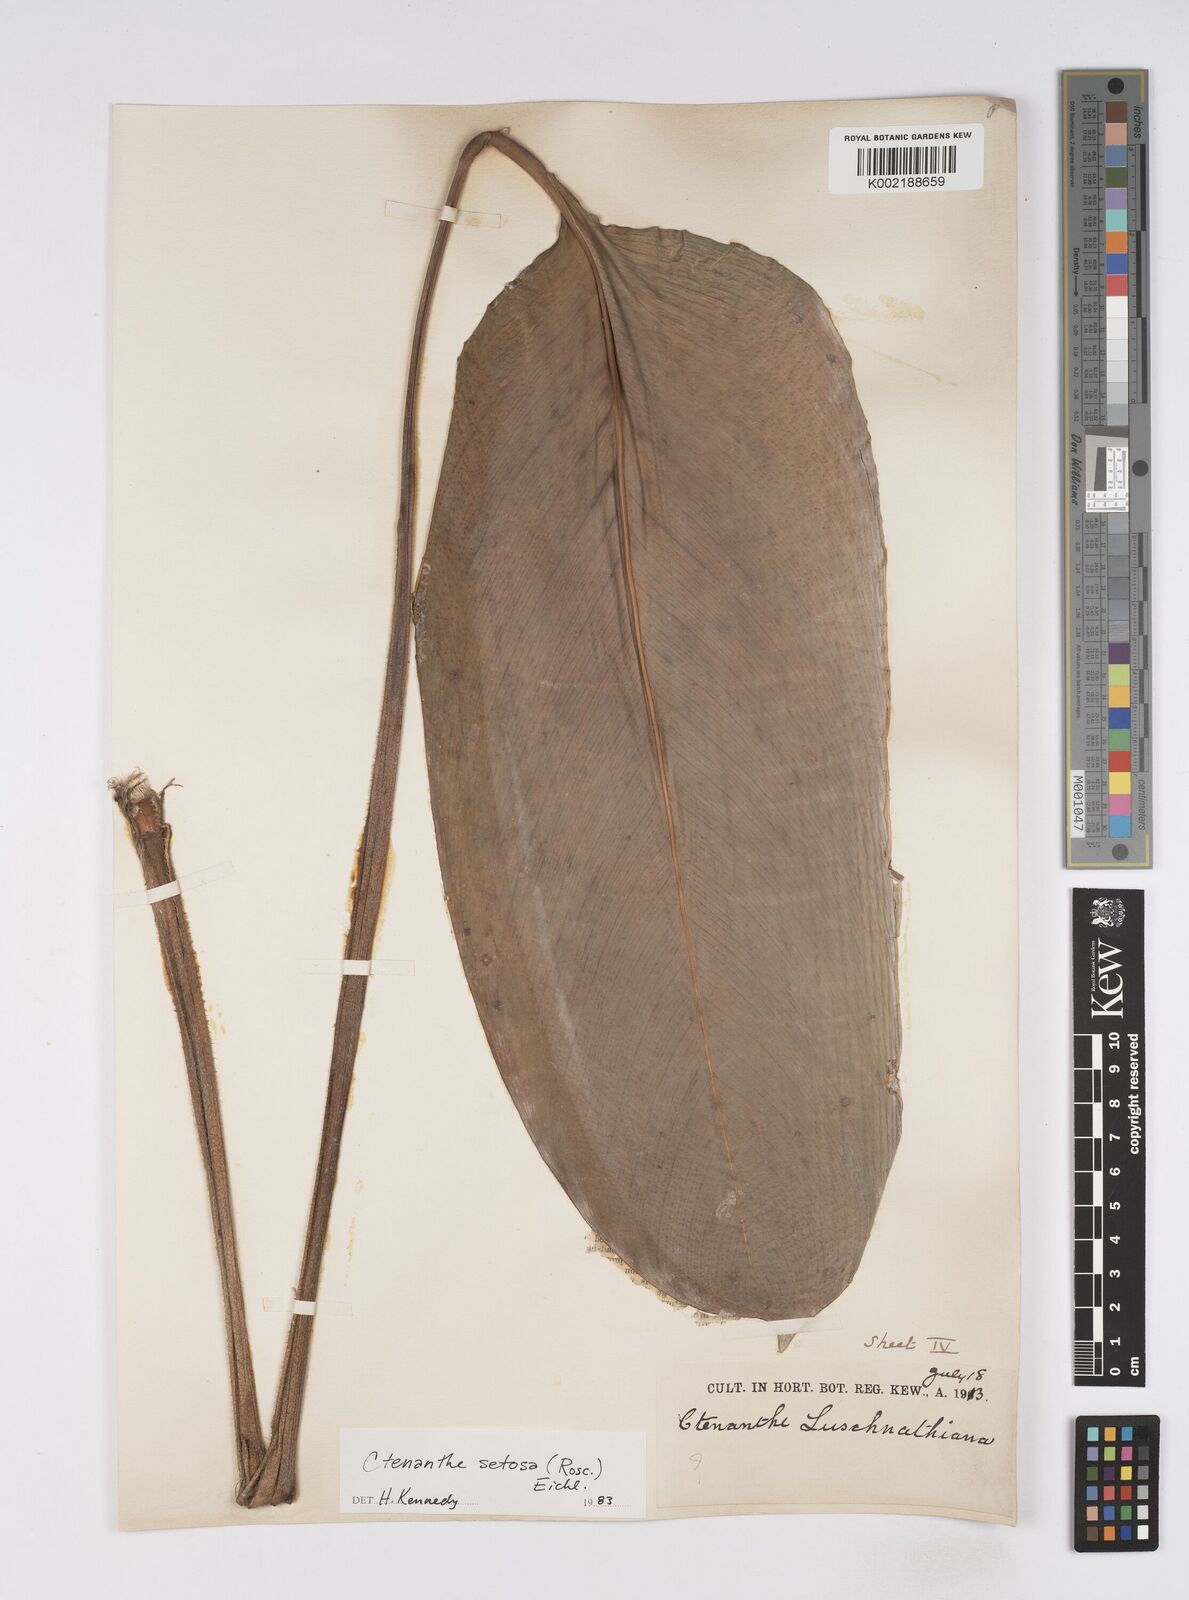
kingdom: Plantae
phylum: Tracheophyta
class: Liliopsida
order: Zingiberales
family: Marantaceae
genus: Ctenanthe
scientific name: Ctenanthe setosa
